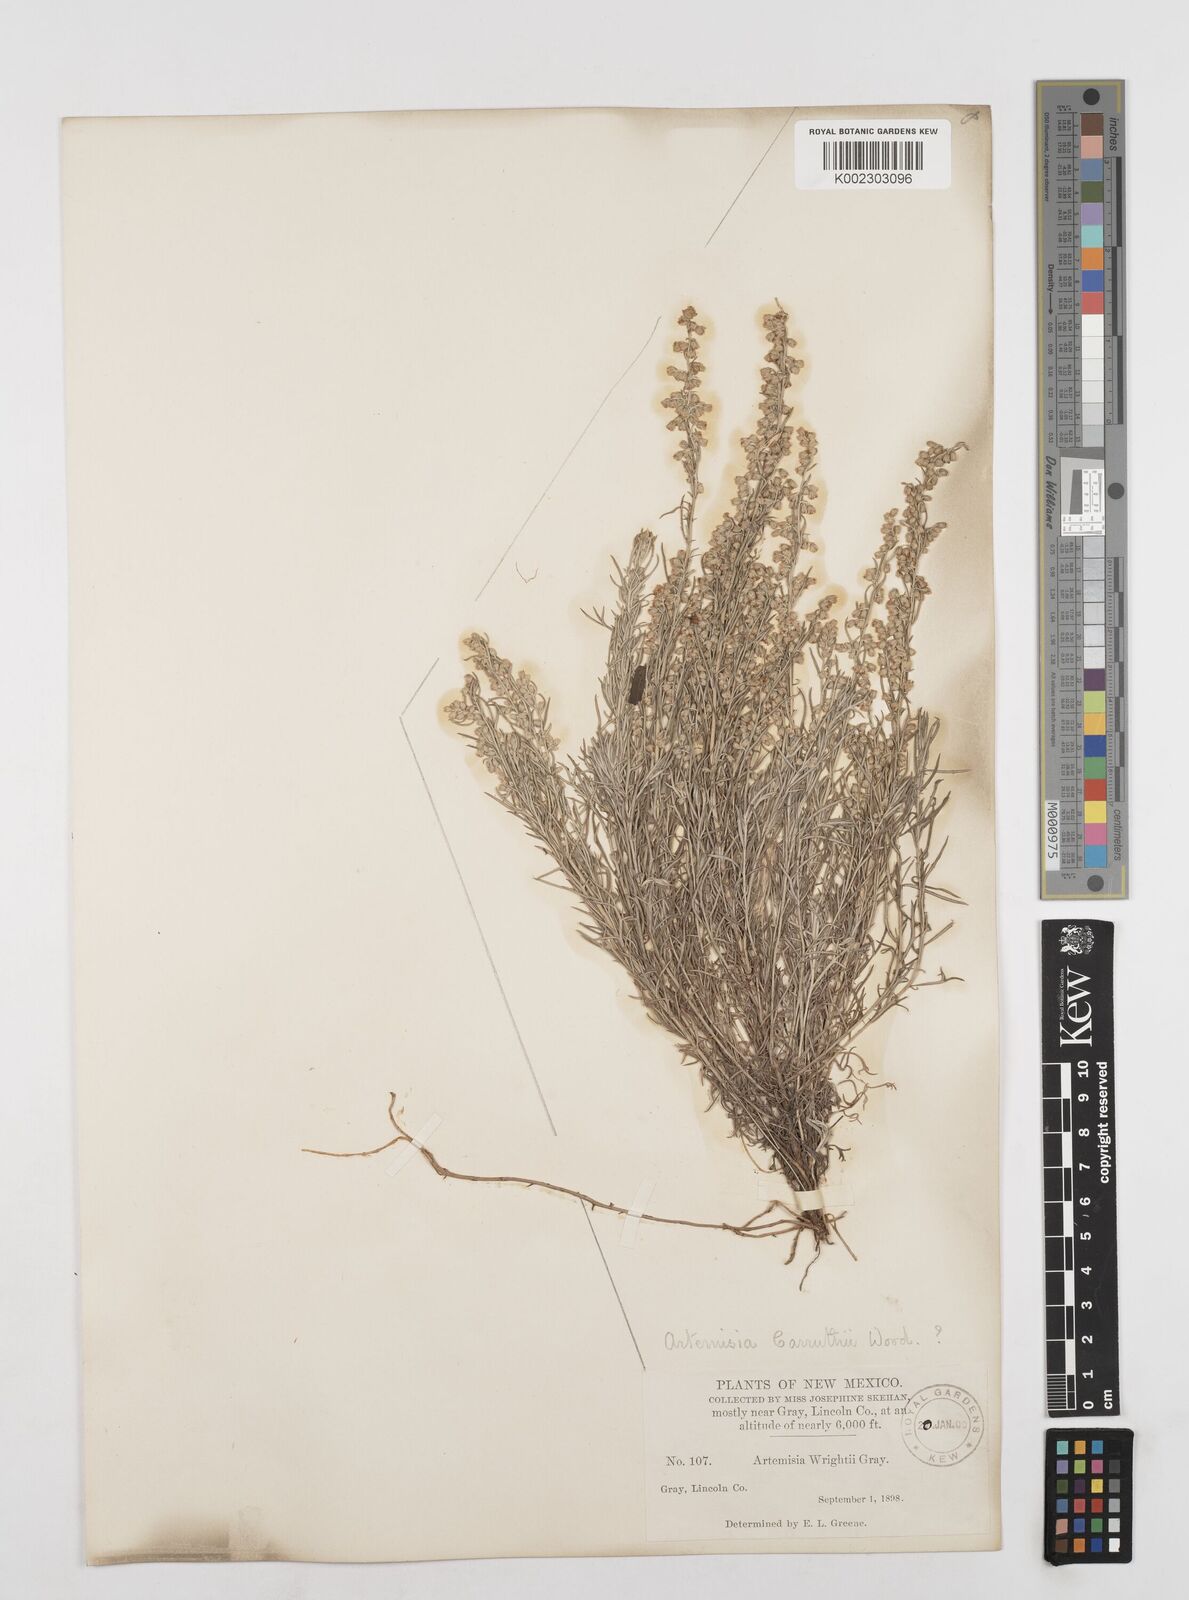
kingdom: Plantae
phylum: Tracheophyta
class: Magnoliopsida
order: Asterales
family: Asteraceae
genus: Artemisia
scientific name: Artemisia carruthii
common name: Carruth wormwood
